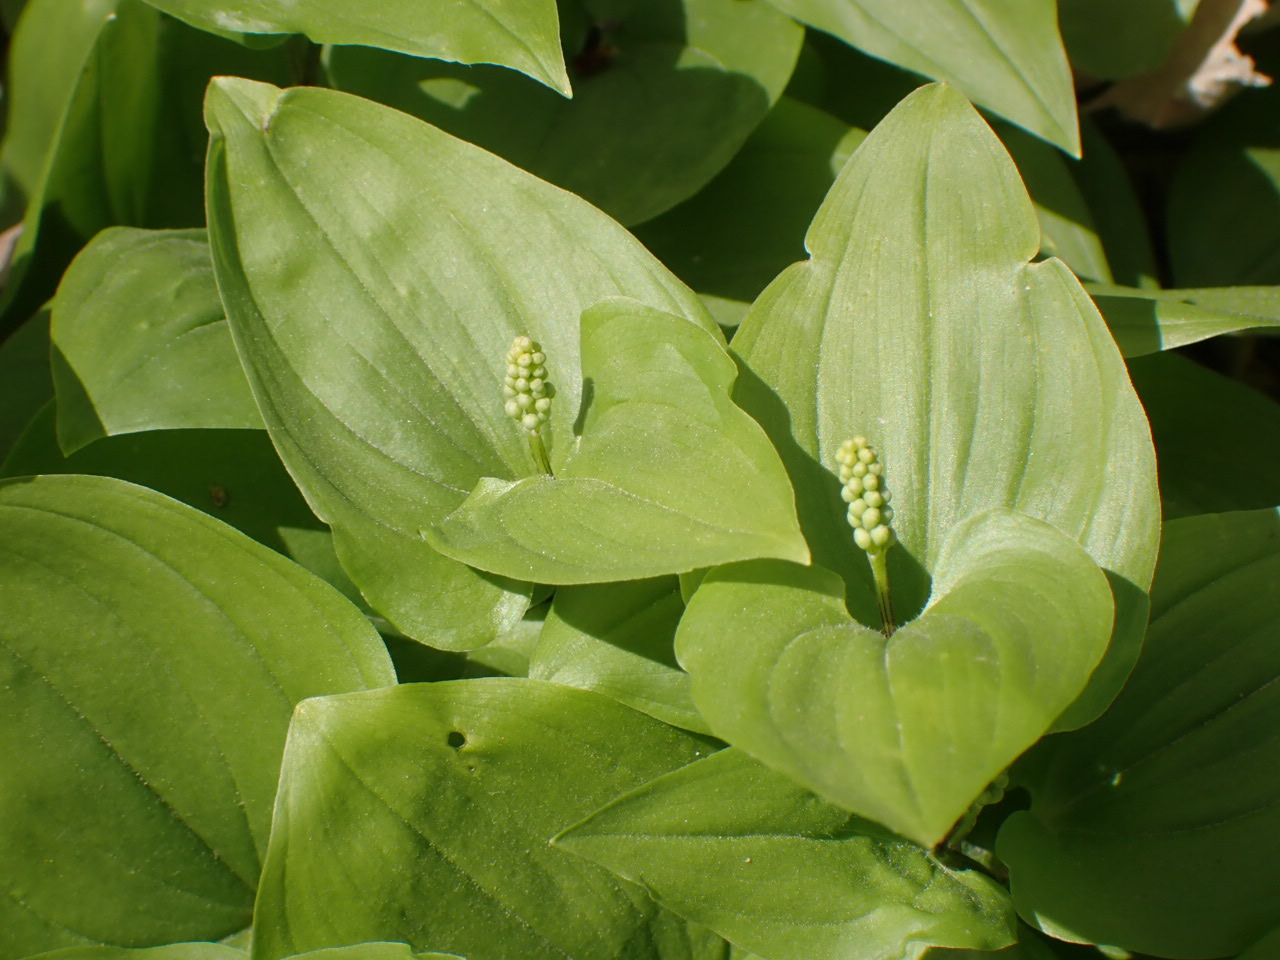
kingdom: Plantae
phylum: Tracheophyta
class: Liliopsida
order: Asparagales
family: Asparagaceae
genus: Maianthemum
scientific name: Maianthemum bifolium
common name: Majblomst
